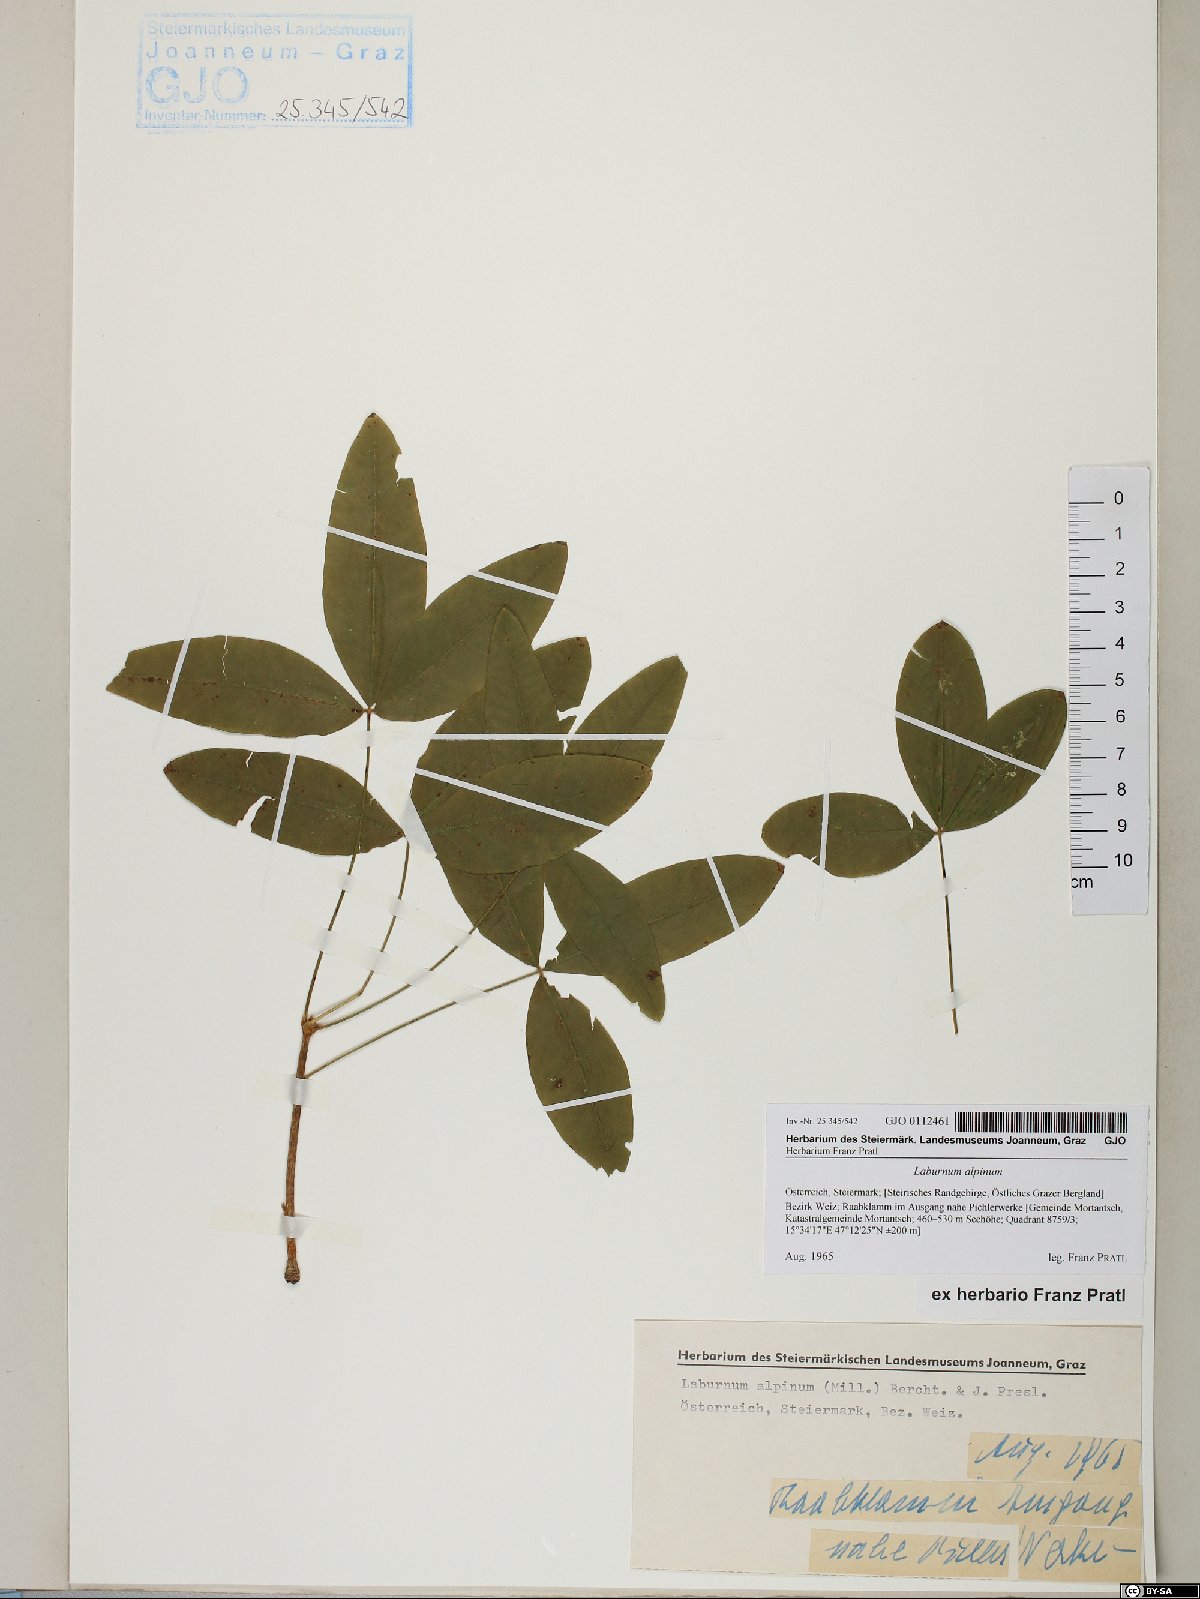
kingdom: Plantae
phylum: Tracheophyta
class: Magnoliopsida
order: Fabales
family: Fabaceae
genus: Laburnum
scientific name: Laburnum alpinum
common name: Scottish laburnum
